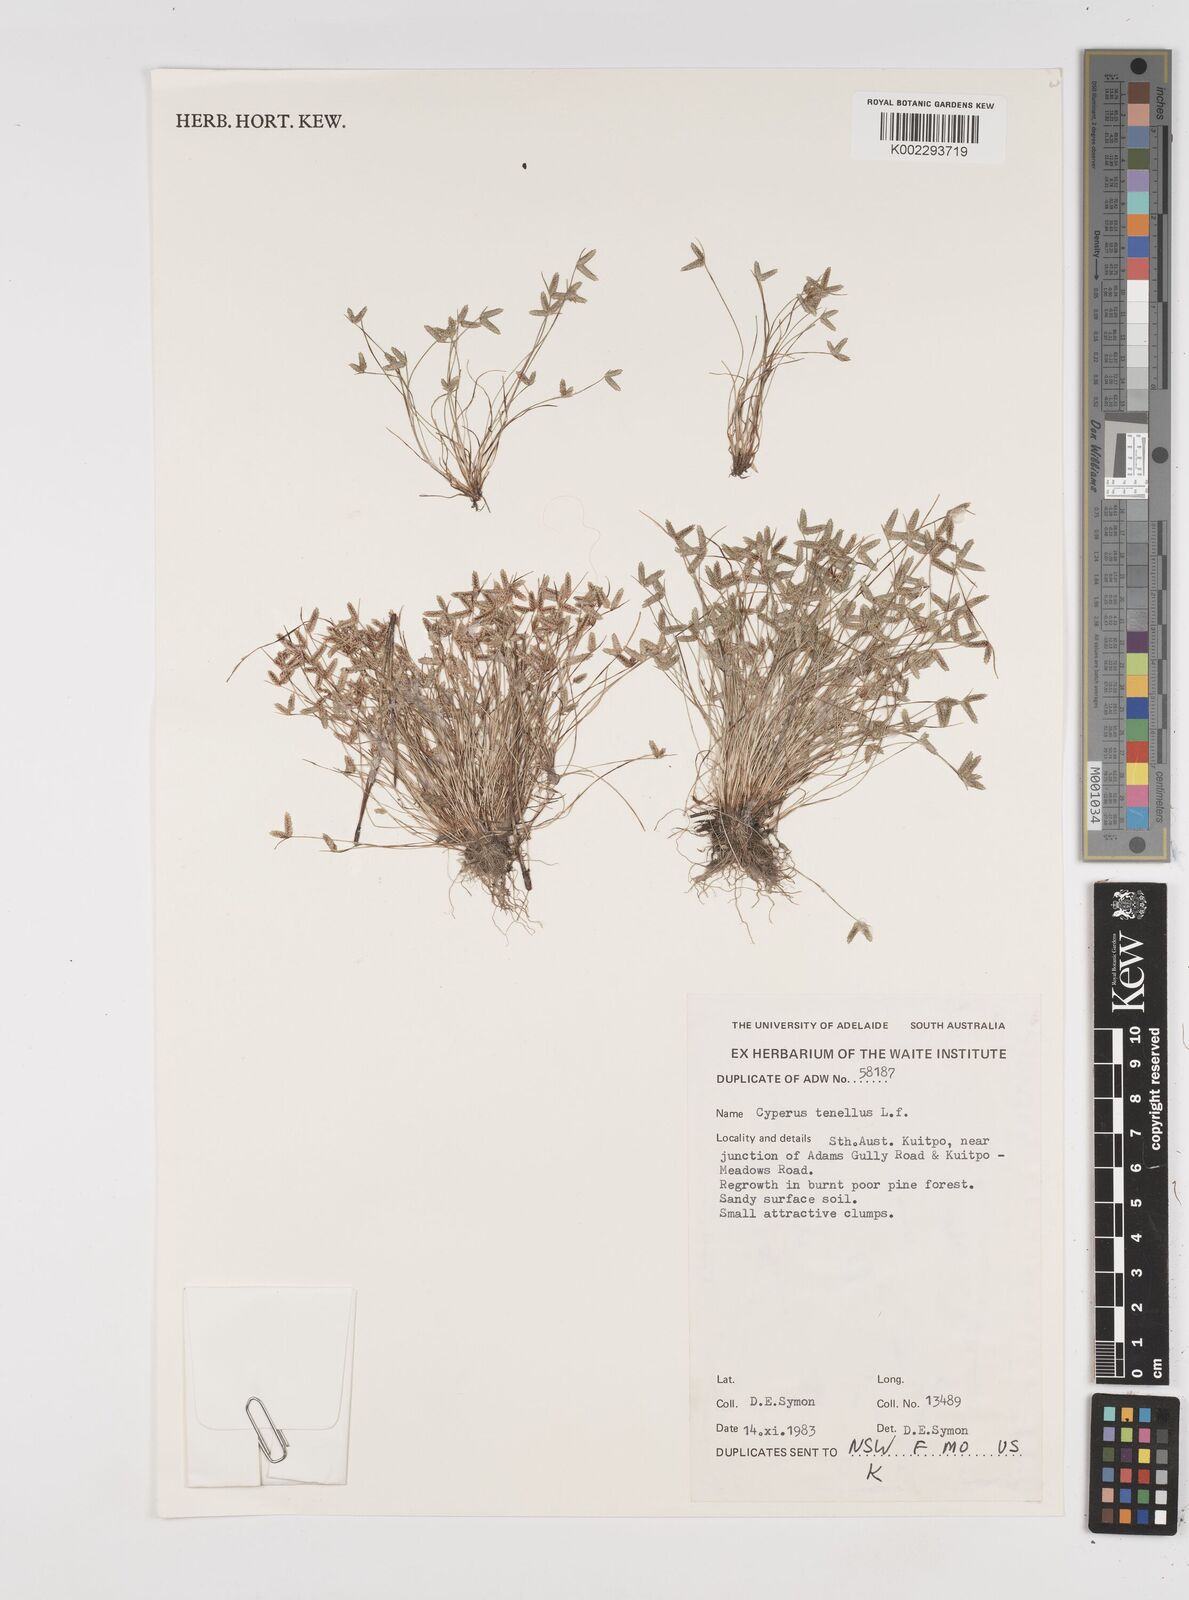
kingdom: Plantae
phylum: Tracheophyta
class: Liliopsida
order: Poales
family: Cyperaceae
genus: Isolepis
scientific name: Isolepis levynsiana
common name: Sedge
